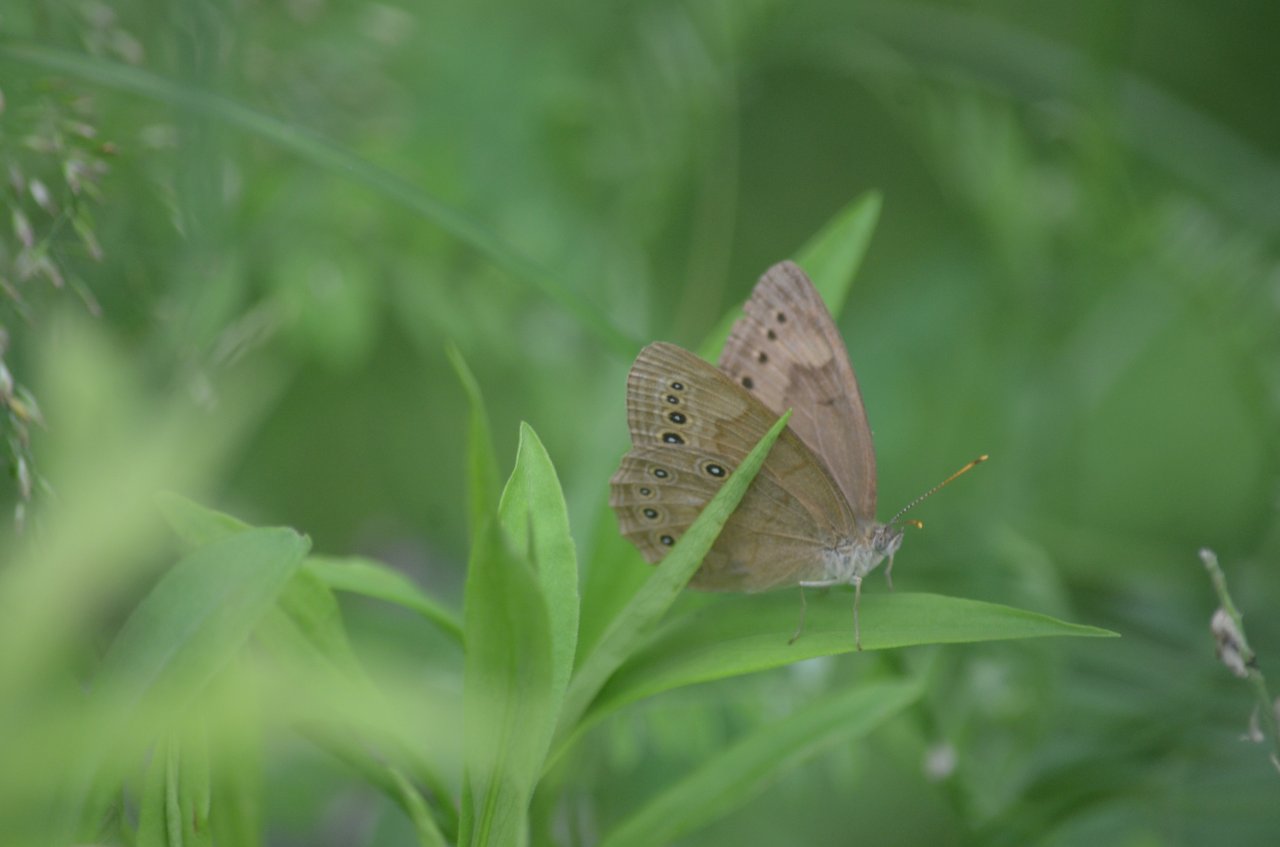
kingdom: Animalia
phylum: Arthropoda
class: Insecta
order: Lepidoptera
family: Nymphalidae
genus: Lethe
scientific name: Lethe eurydice
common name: Eyed Brown
